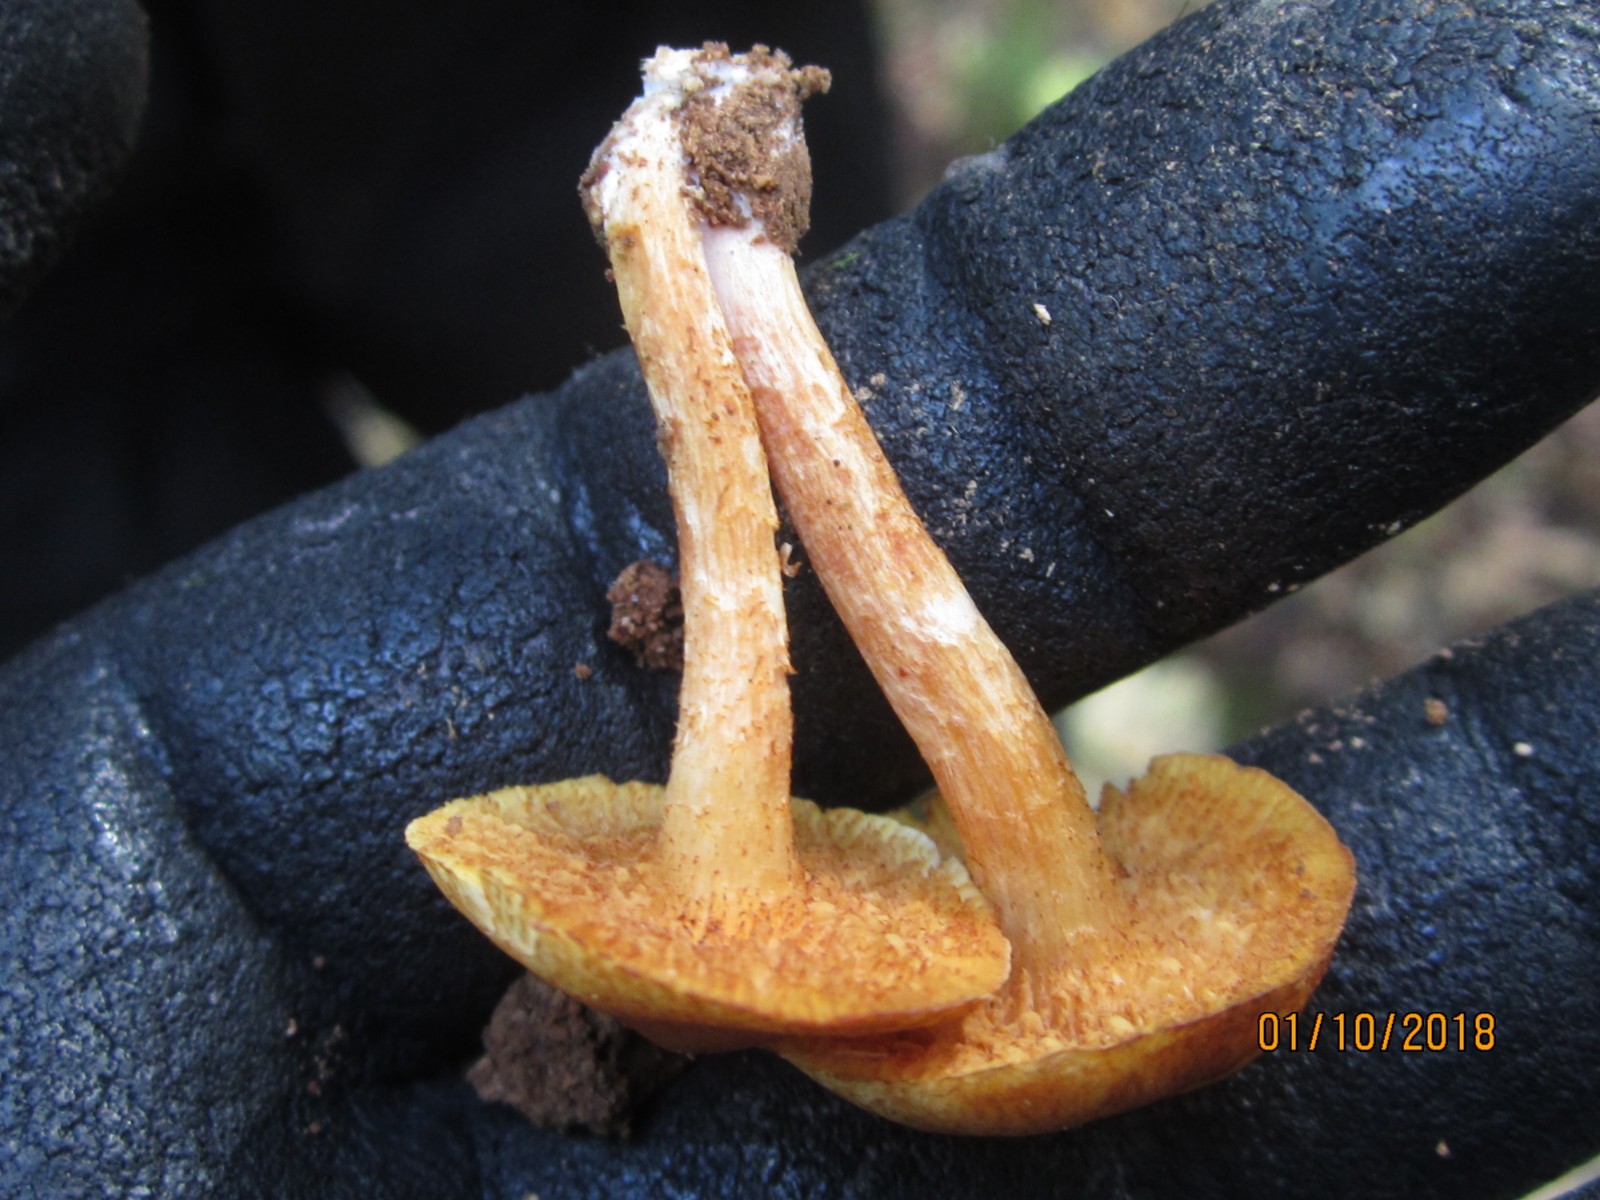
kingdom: Fungi
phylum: Basidiomycota
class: Agaricomycetes
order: Agaricales
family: Hymenogastraceae
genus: Gymnopilus
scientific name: Gymnopilus penetrans
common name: plettet flammehat
